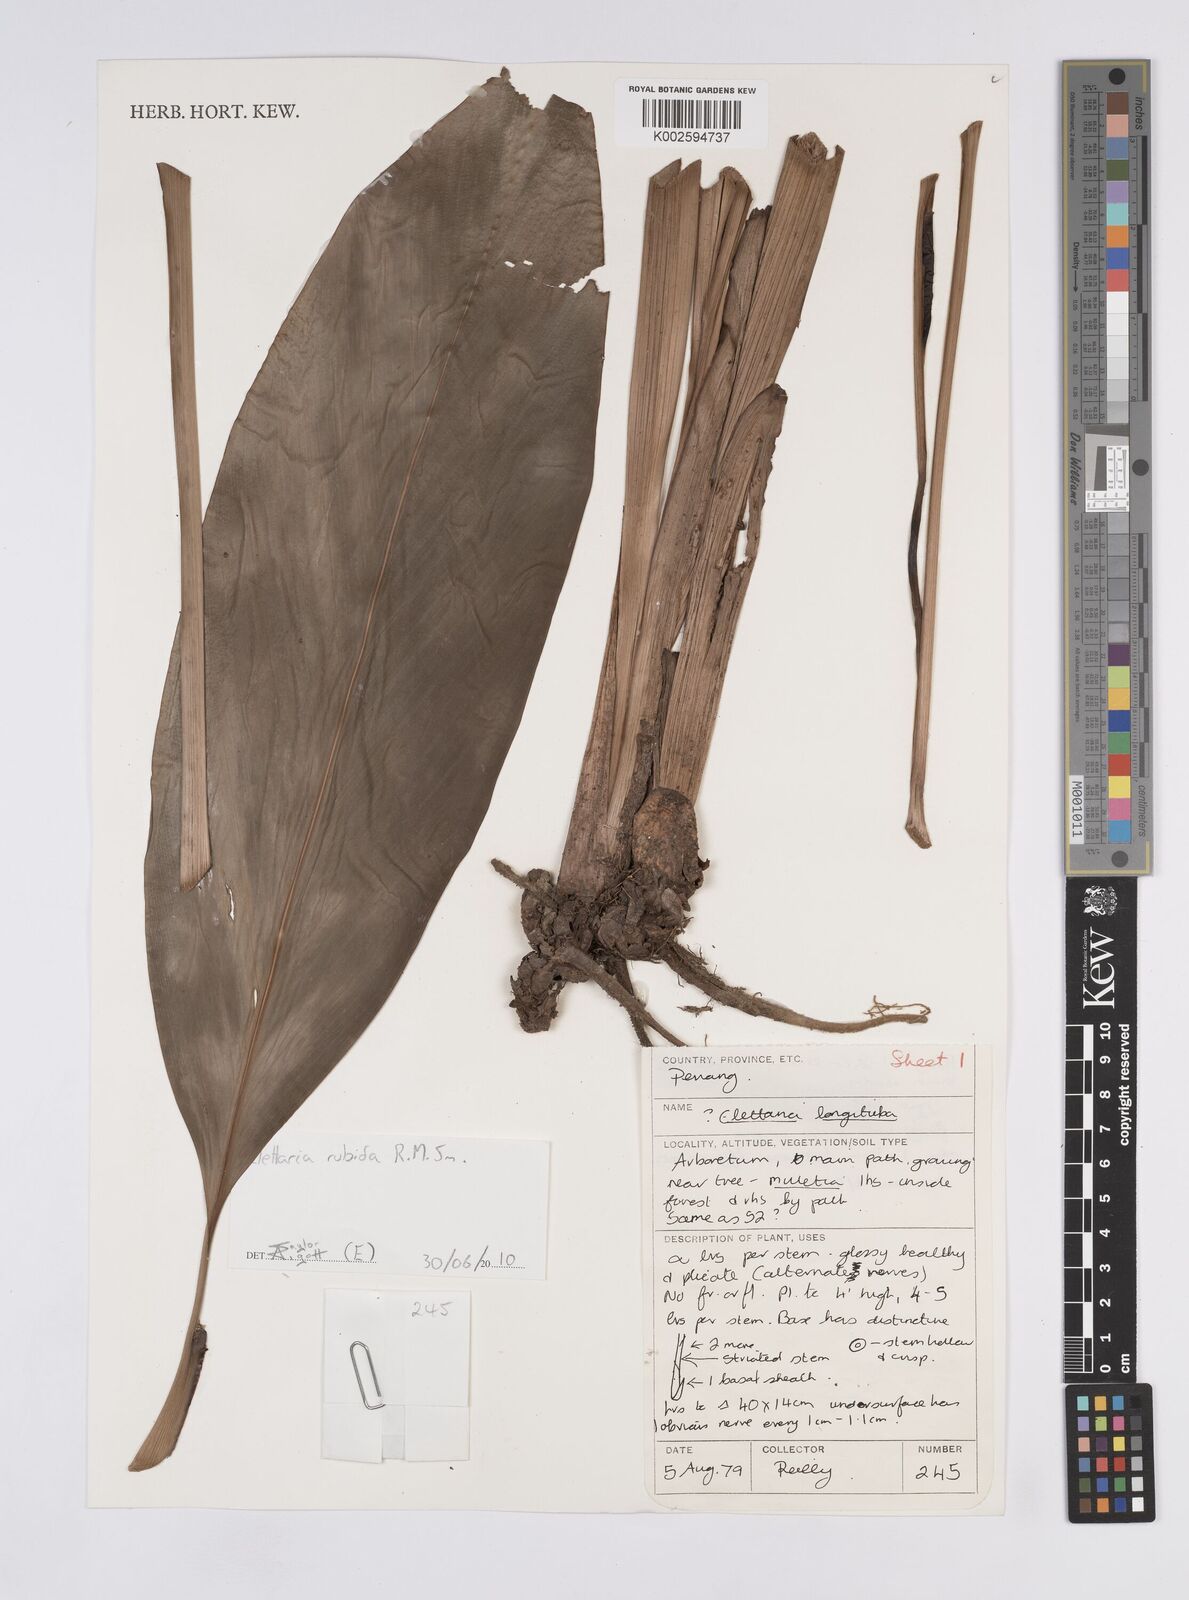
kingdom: Plantae
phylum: Tracheophyta
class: Liliopsida
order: Zingiberales
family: Zingiberaceae
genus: Sulettaria
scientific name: Sulettaria longituba
